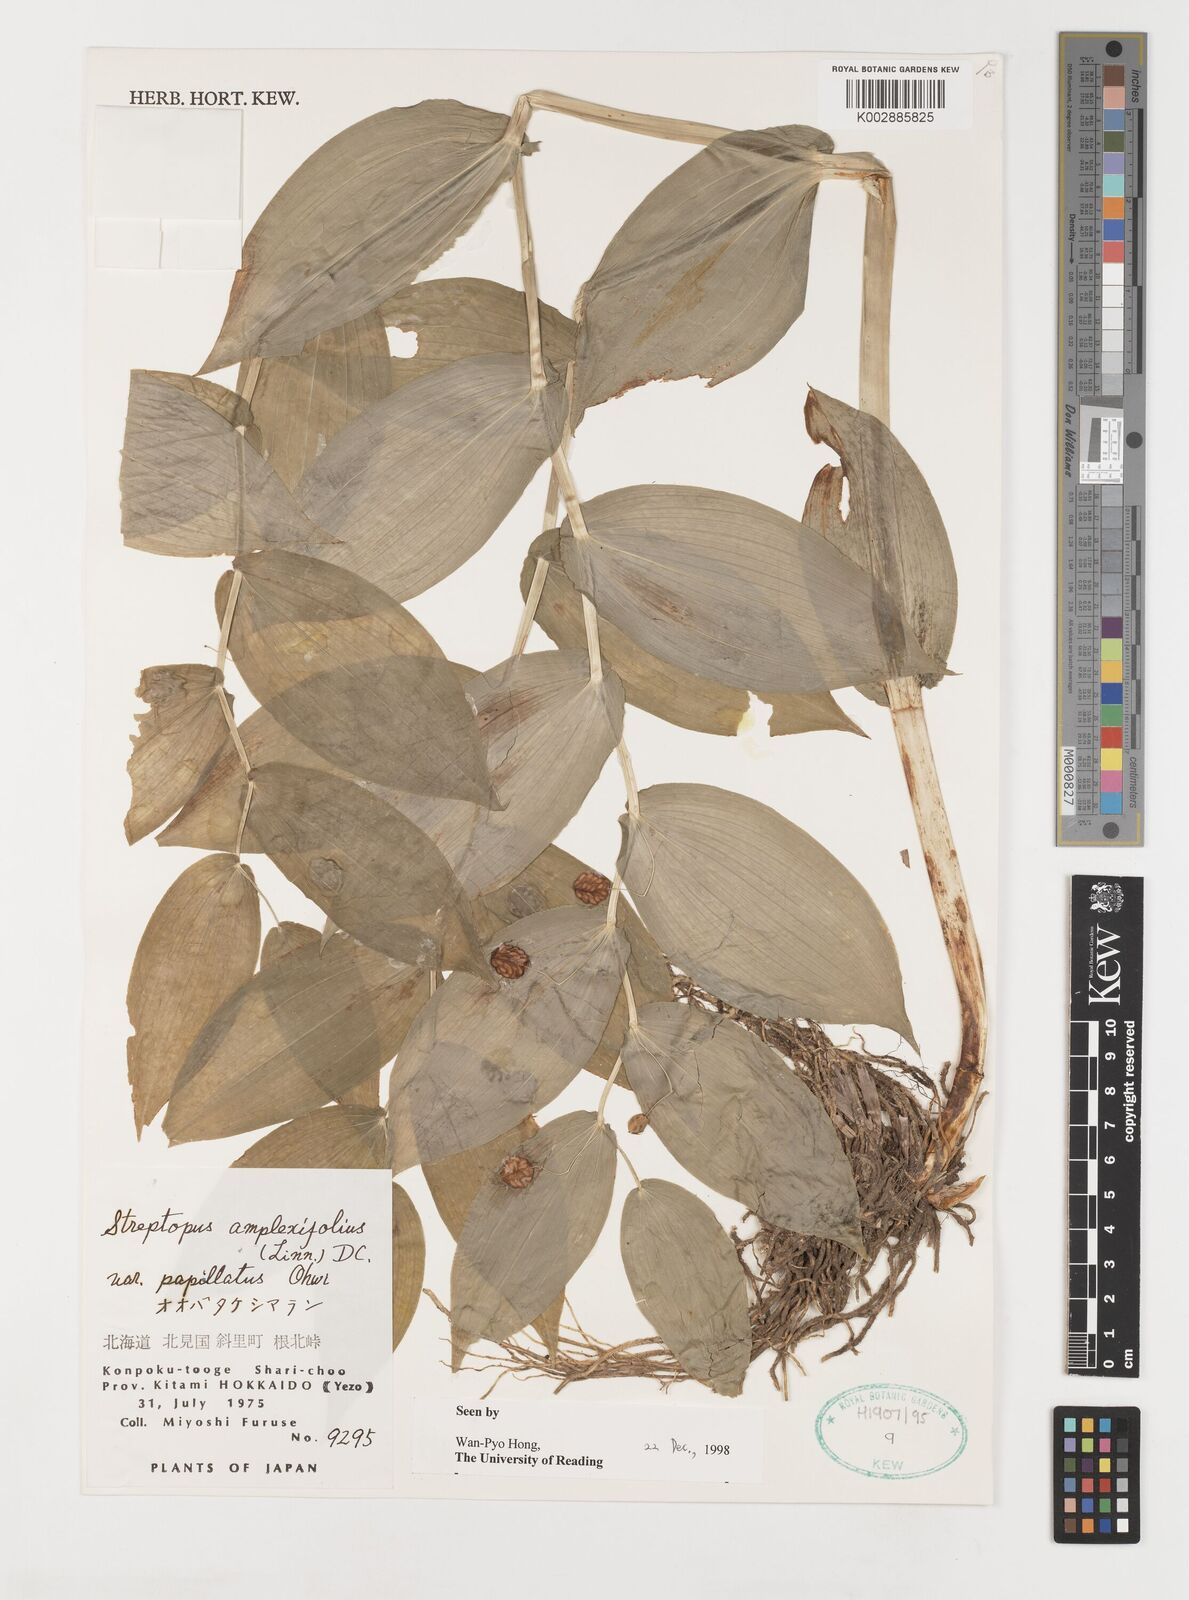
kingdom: Plantae
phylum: Tracheophyta
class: Liliopsida
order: Liliales
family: Liliaceae
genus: Streptopus
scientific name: Streptopus amplexifolius
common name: Clasp twisted stalk
